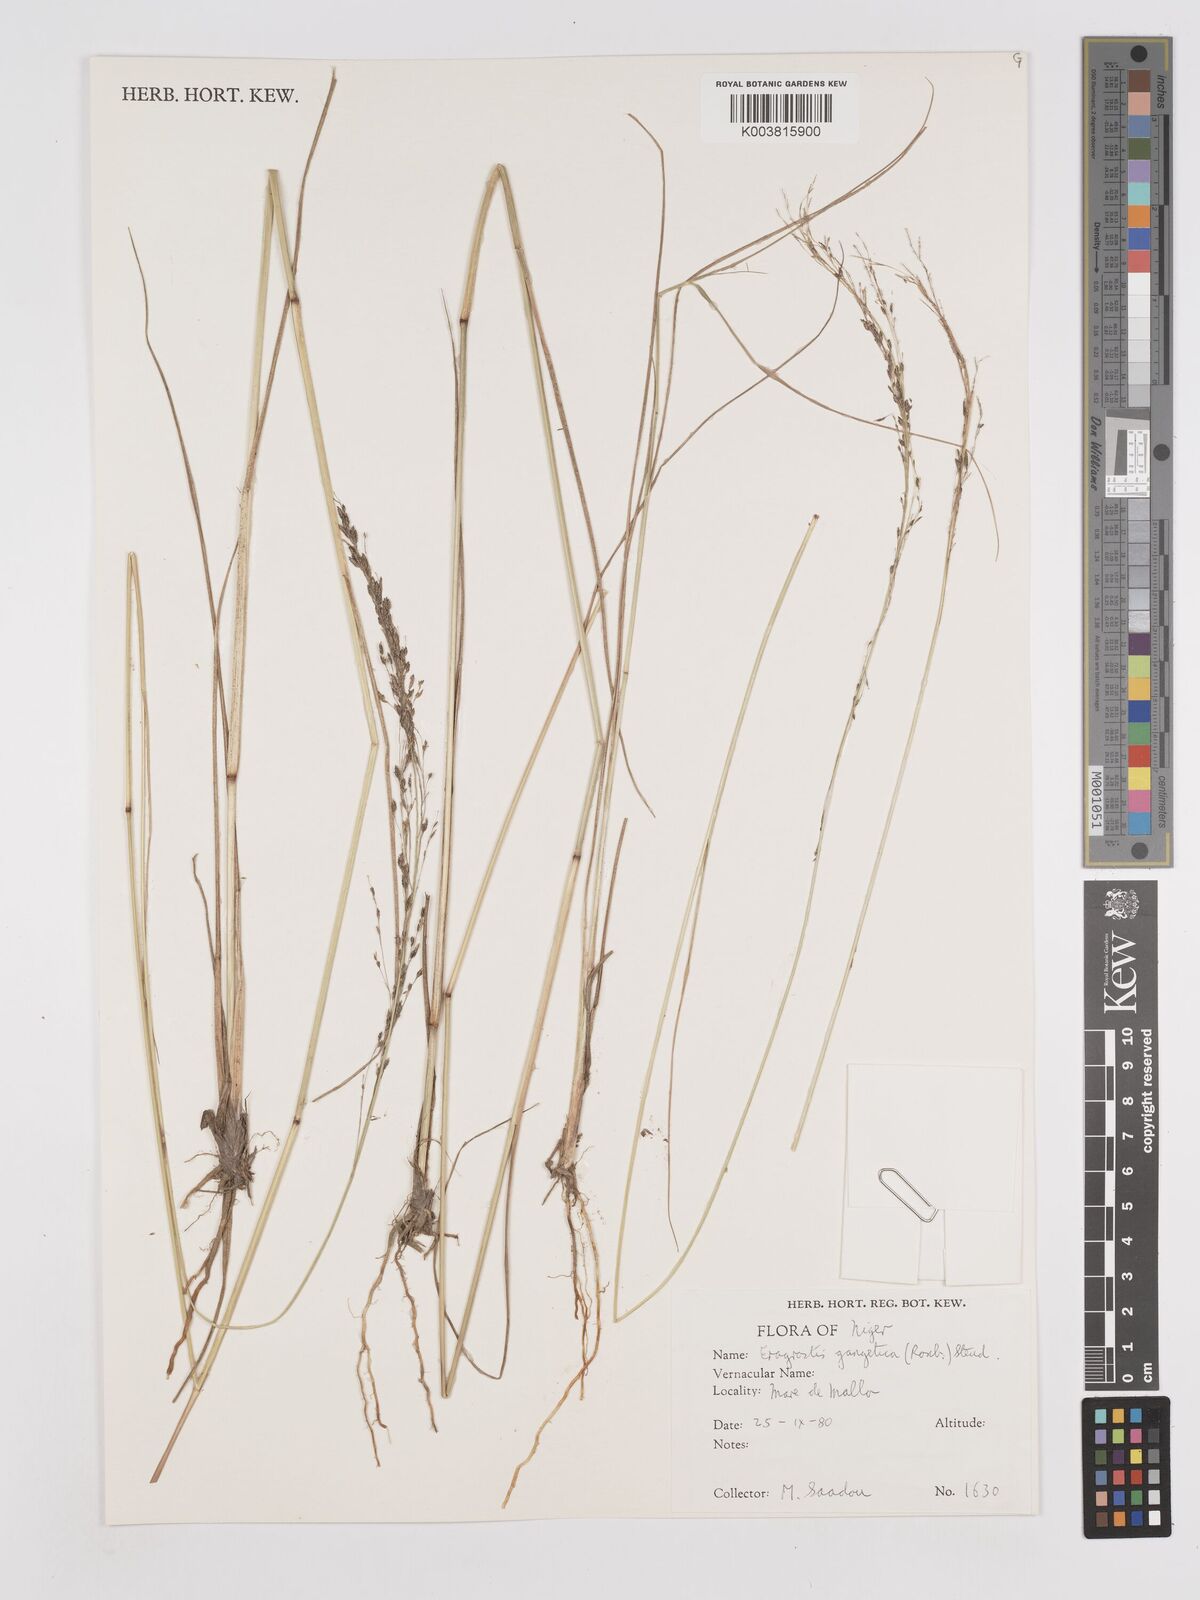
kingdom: Plantae
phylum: Tracheophyta
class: Liliopsida
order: Poales
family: Poaceae
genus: Eragrostis
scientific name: Eragrostis gangetica
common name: Slimflower lovegrass
